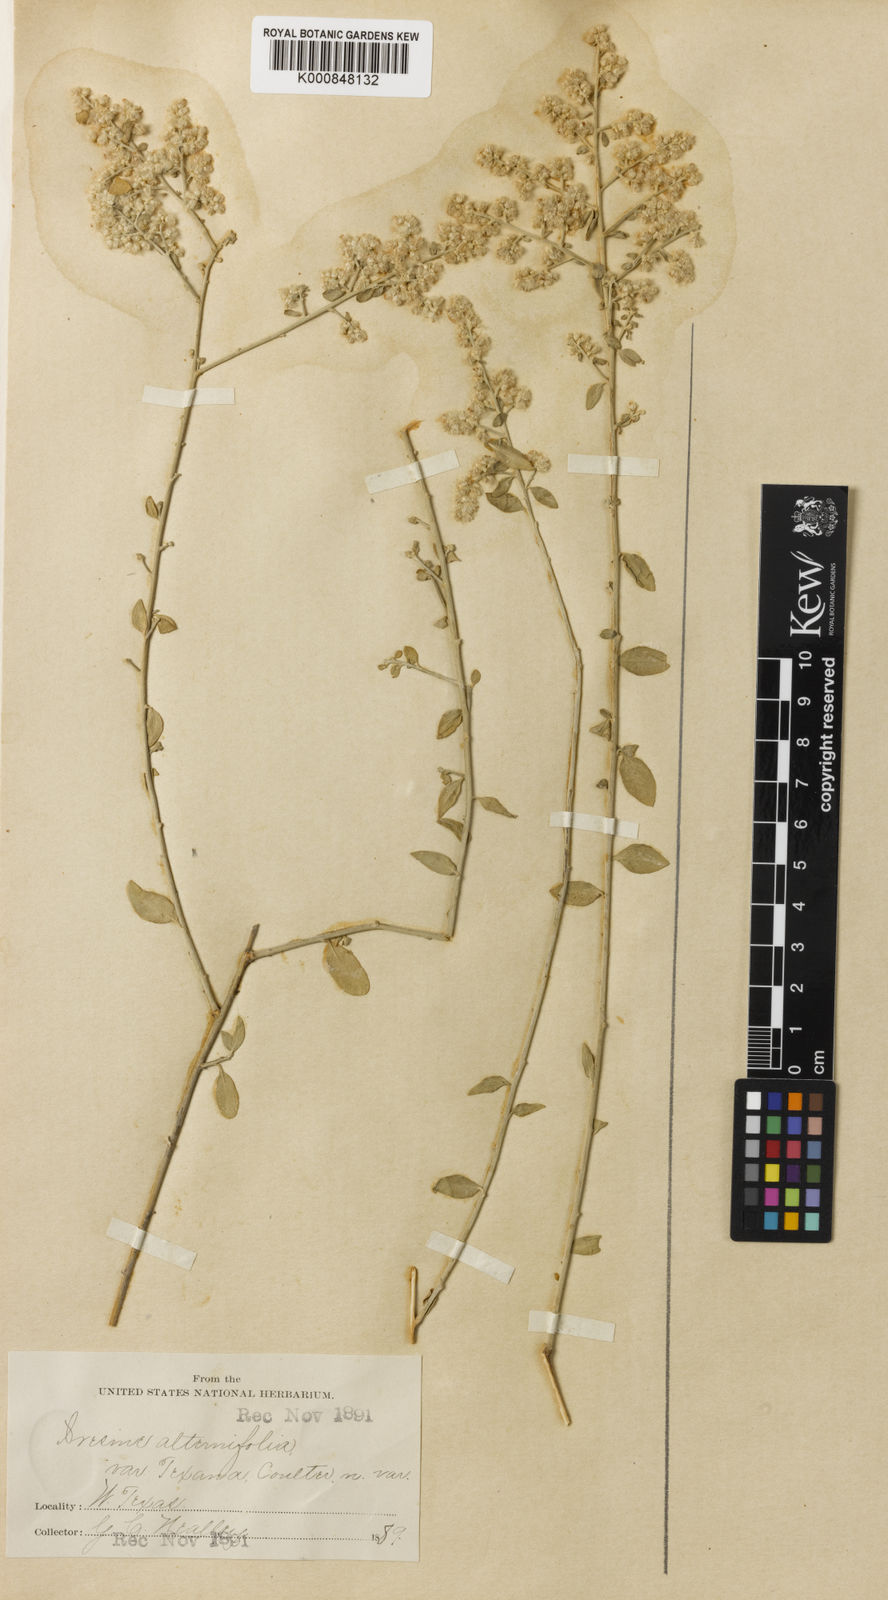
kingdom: Plantae
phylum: Tracheophyta
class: Magnoliopsida
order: Caryophyllales
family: Amaranthaceae
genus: Iresine
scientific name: Iresine alternifolia
